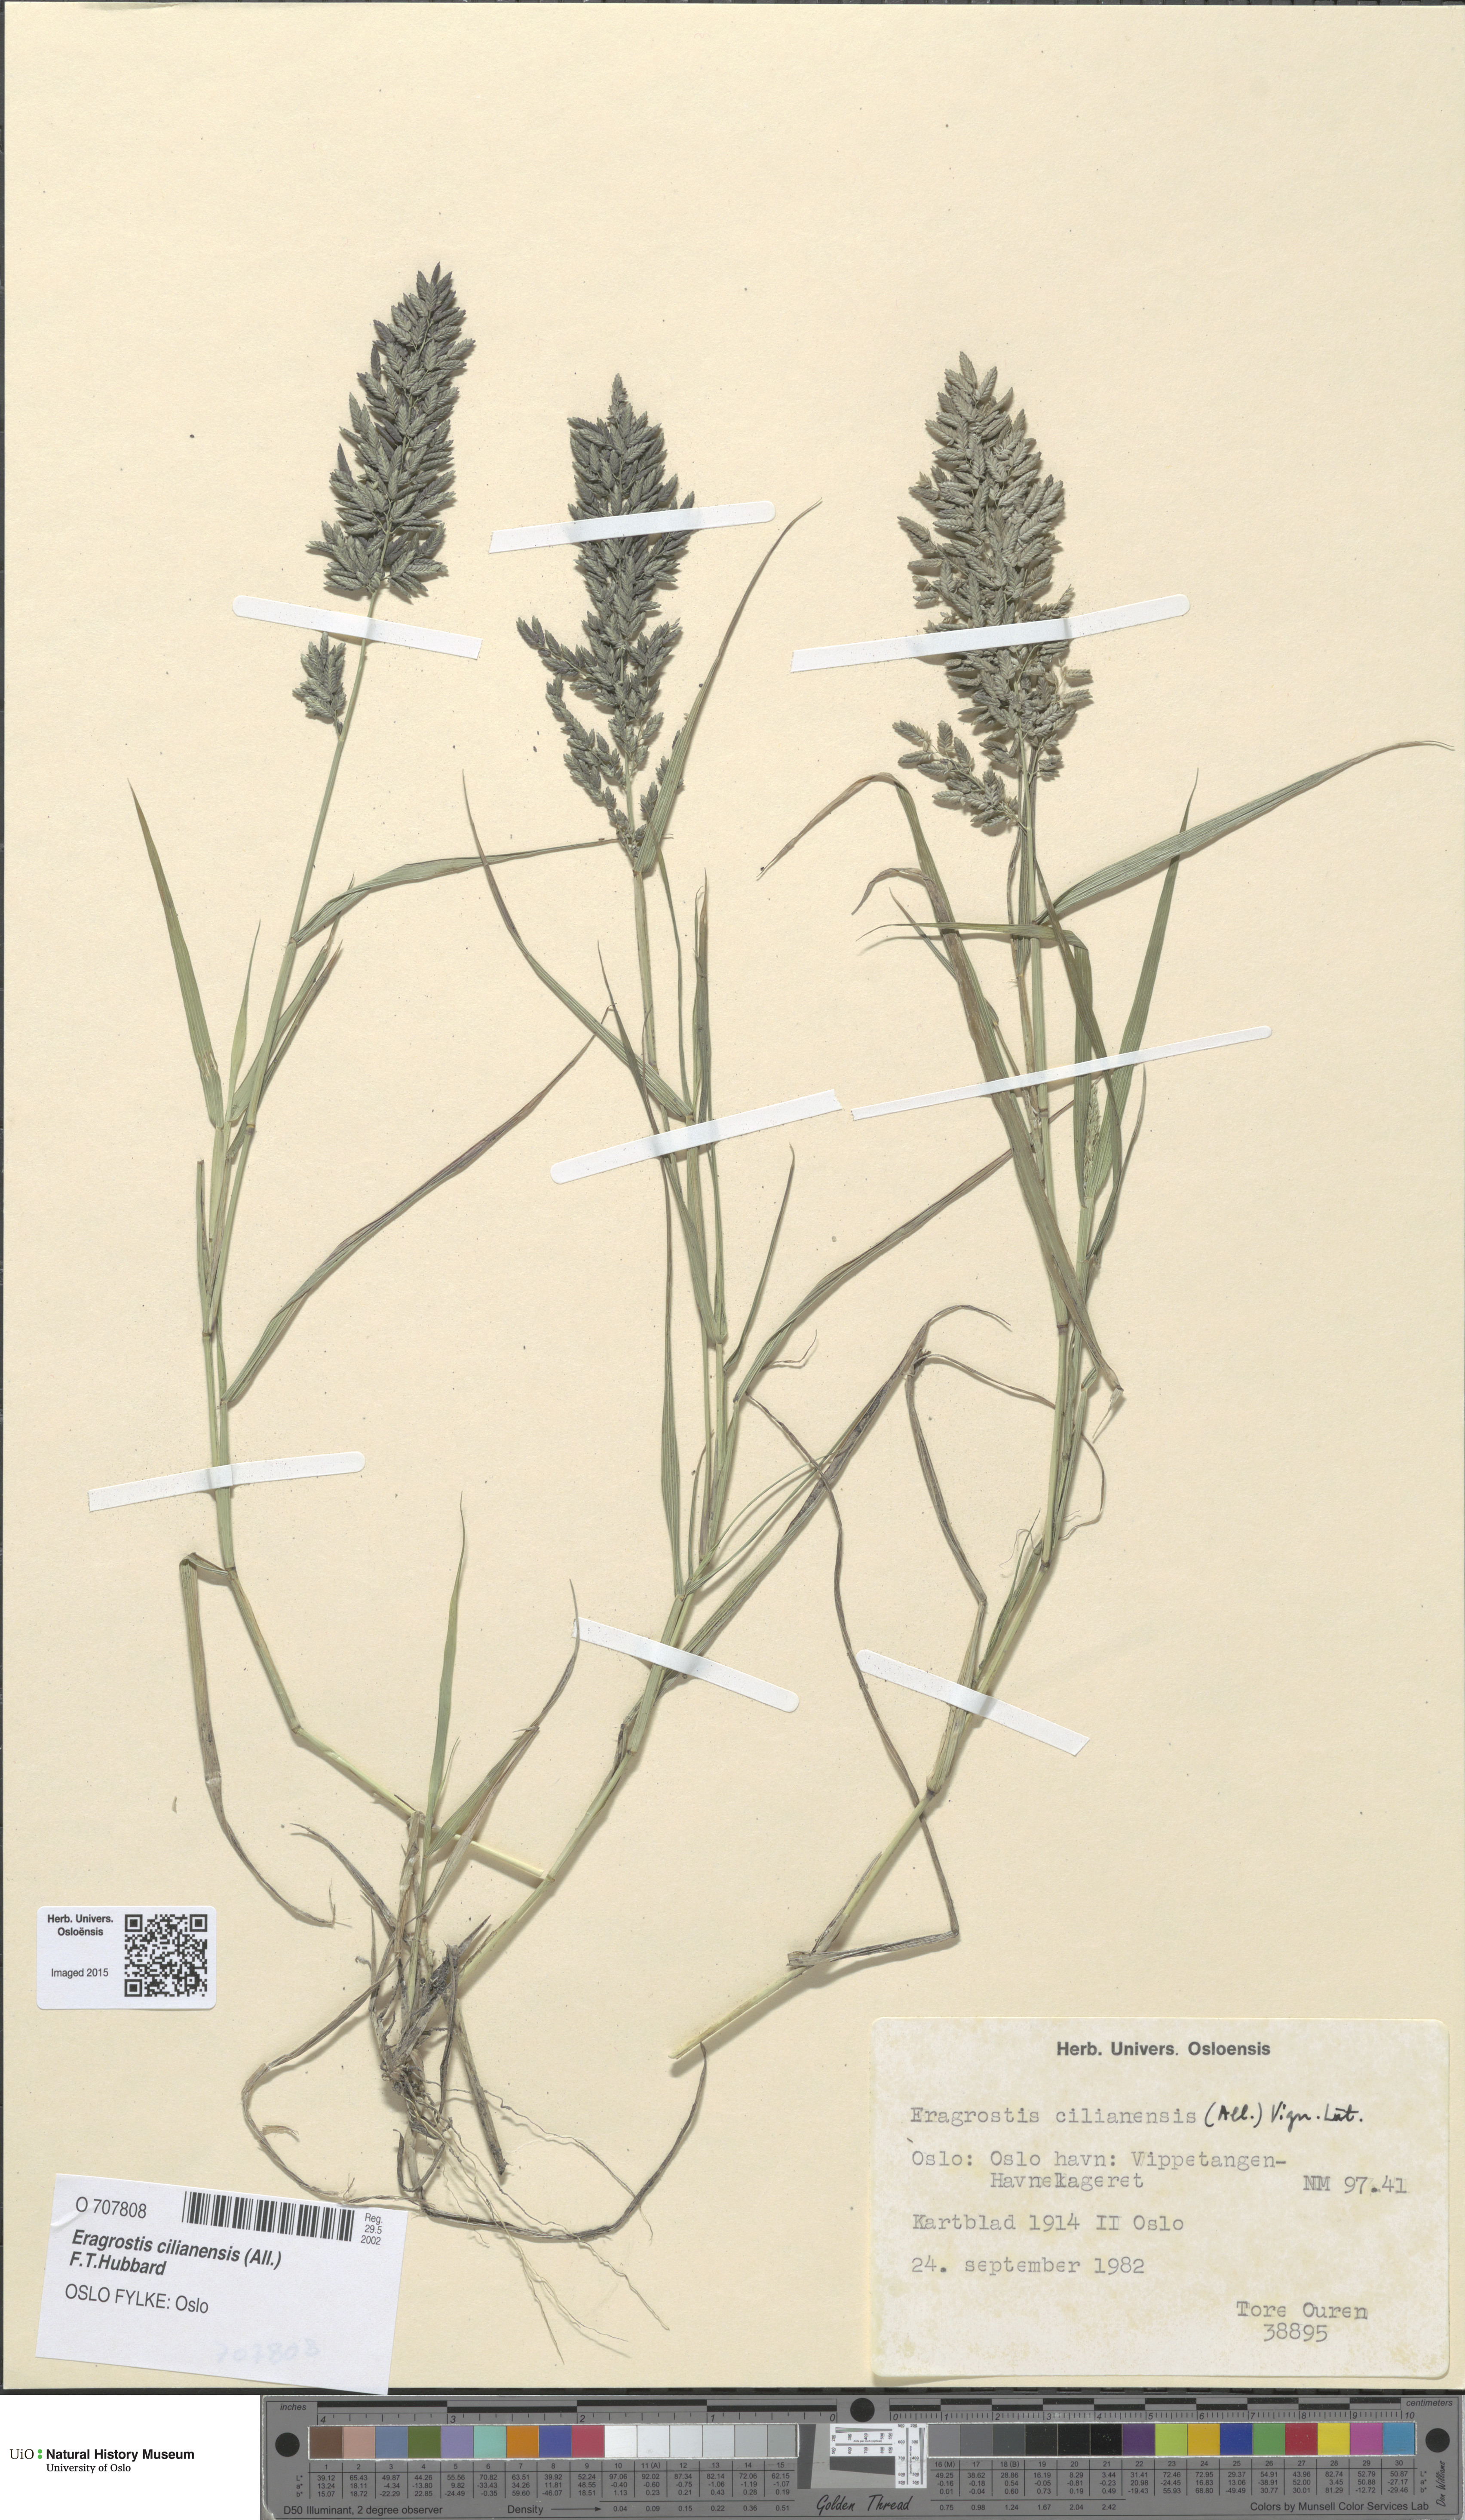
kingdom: Plantae
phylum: Tracheophyta
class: Liliopsida
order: Poales
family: Poaceae
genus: Eragrostis
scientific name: Eragrostis cilianensis
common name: Stinkgrass
